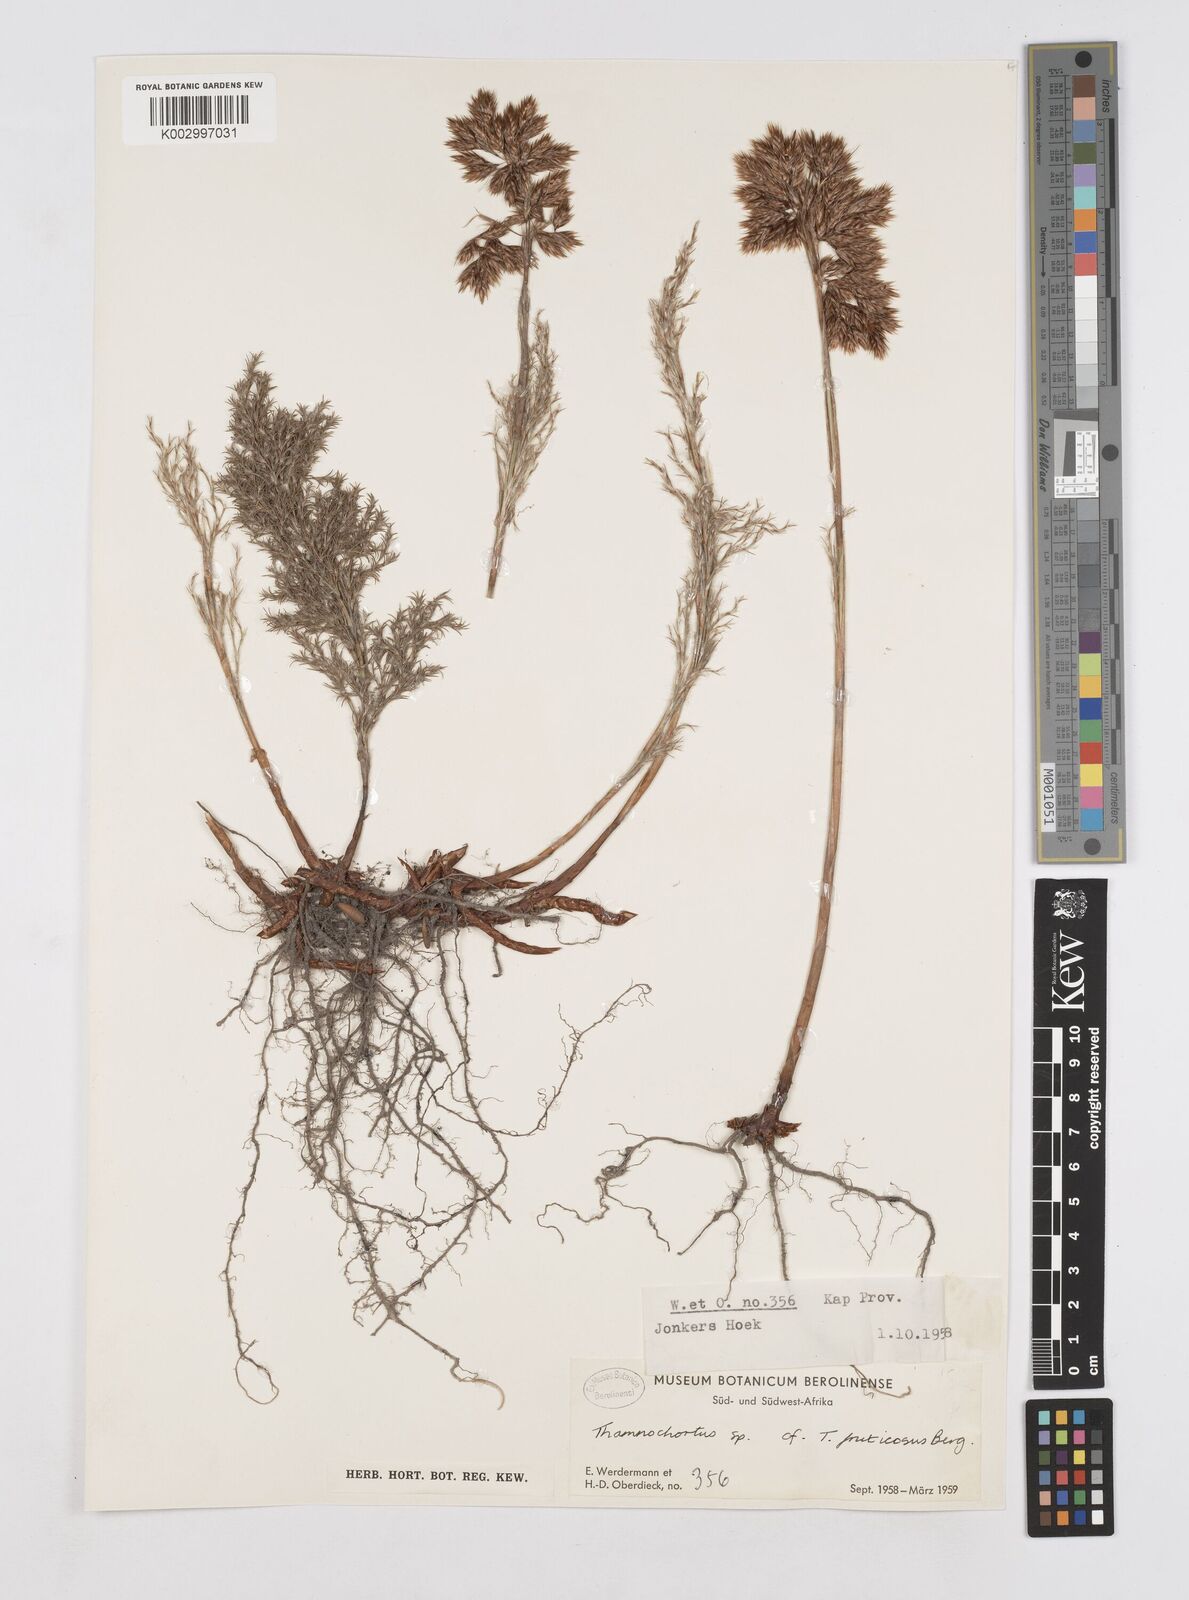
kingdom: Plantae
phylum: Tracheophyta
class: Liliopsida
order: Poales
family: Restionaceae
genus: Thamnochortus
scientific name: Thamnochortus fruticosus
